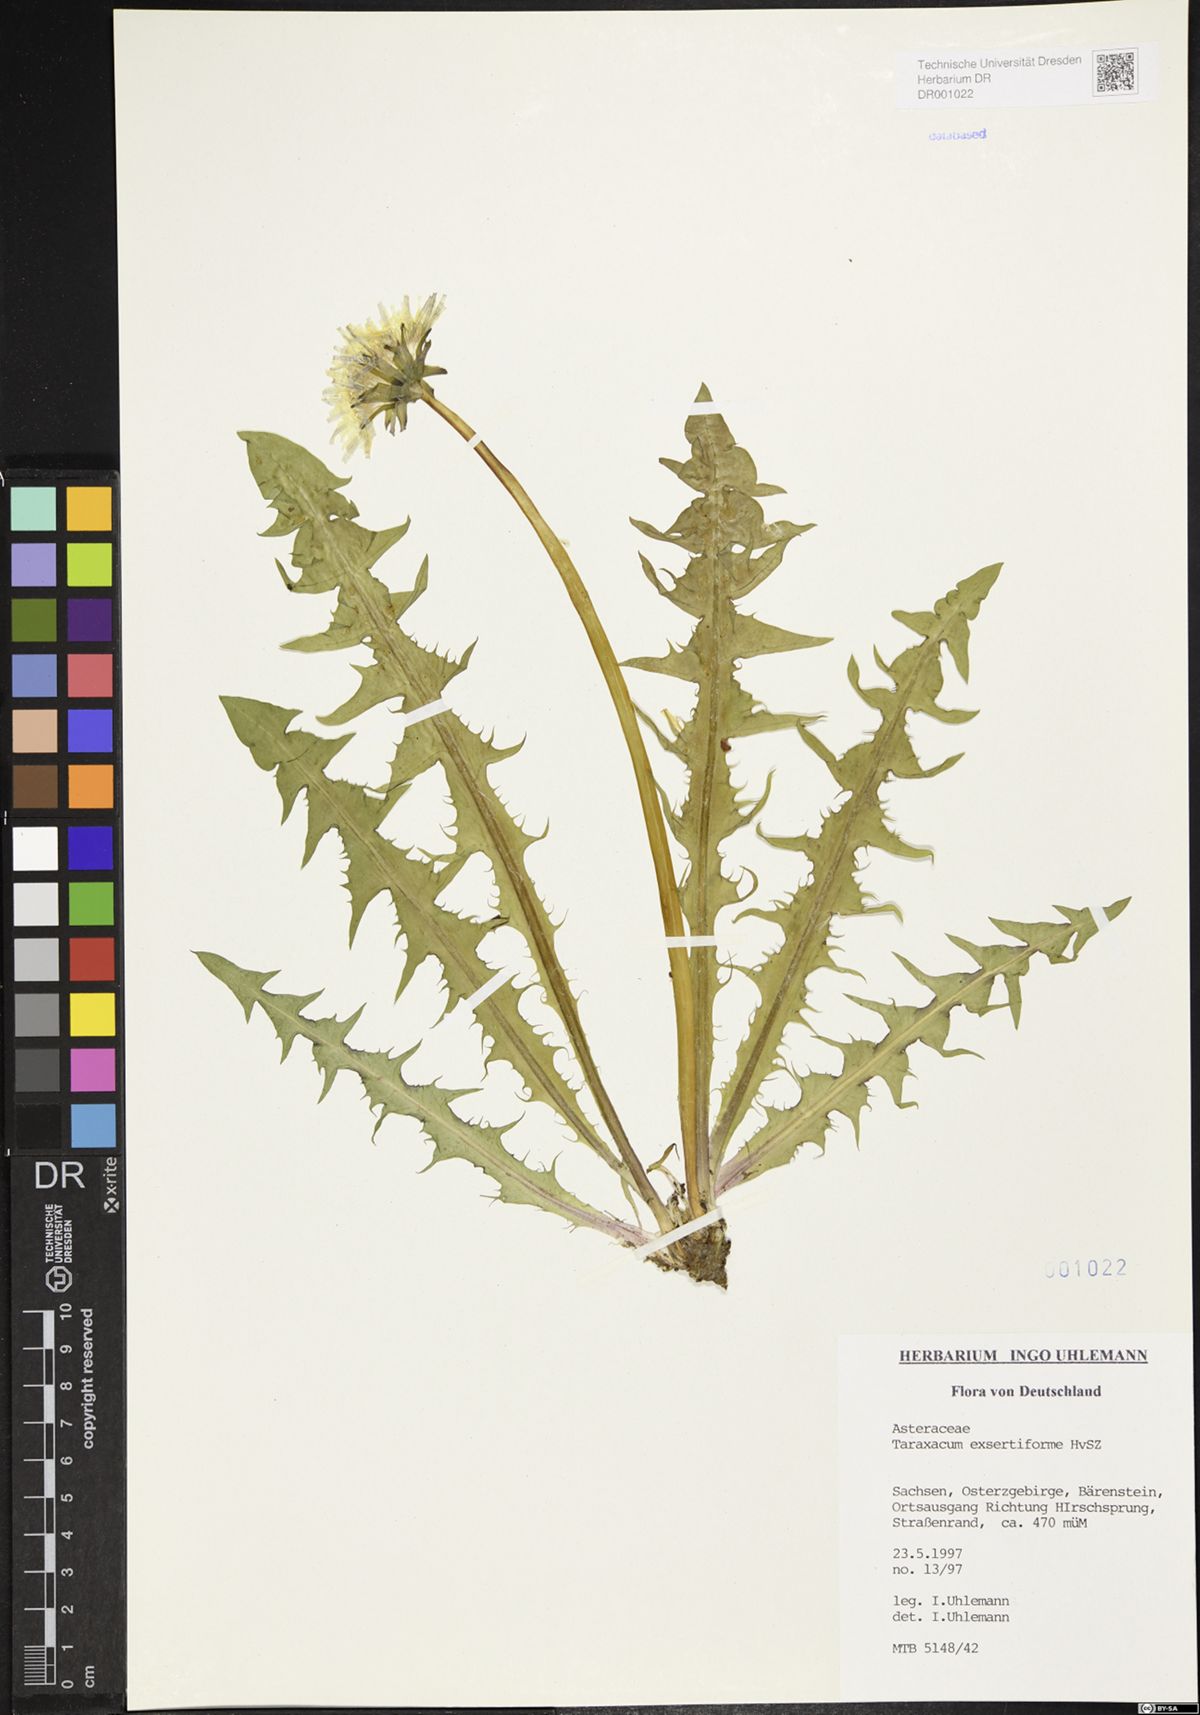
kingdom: Plantae
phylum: Tracheophyta
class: Magnoliopsida
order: Asterales
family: Asteraceae
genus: Taraxacum
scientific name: Taraxacum exsertiforme
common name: Erect-bracted dandelion
